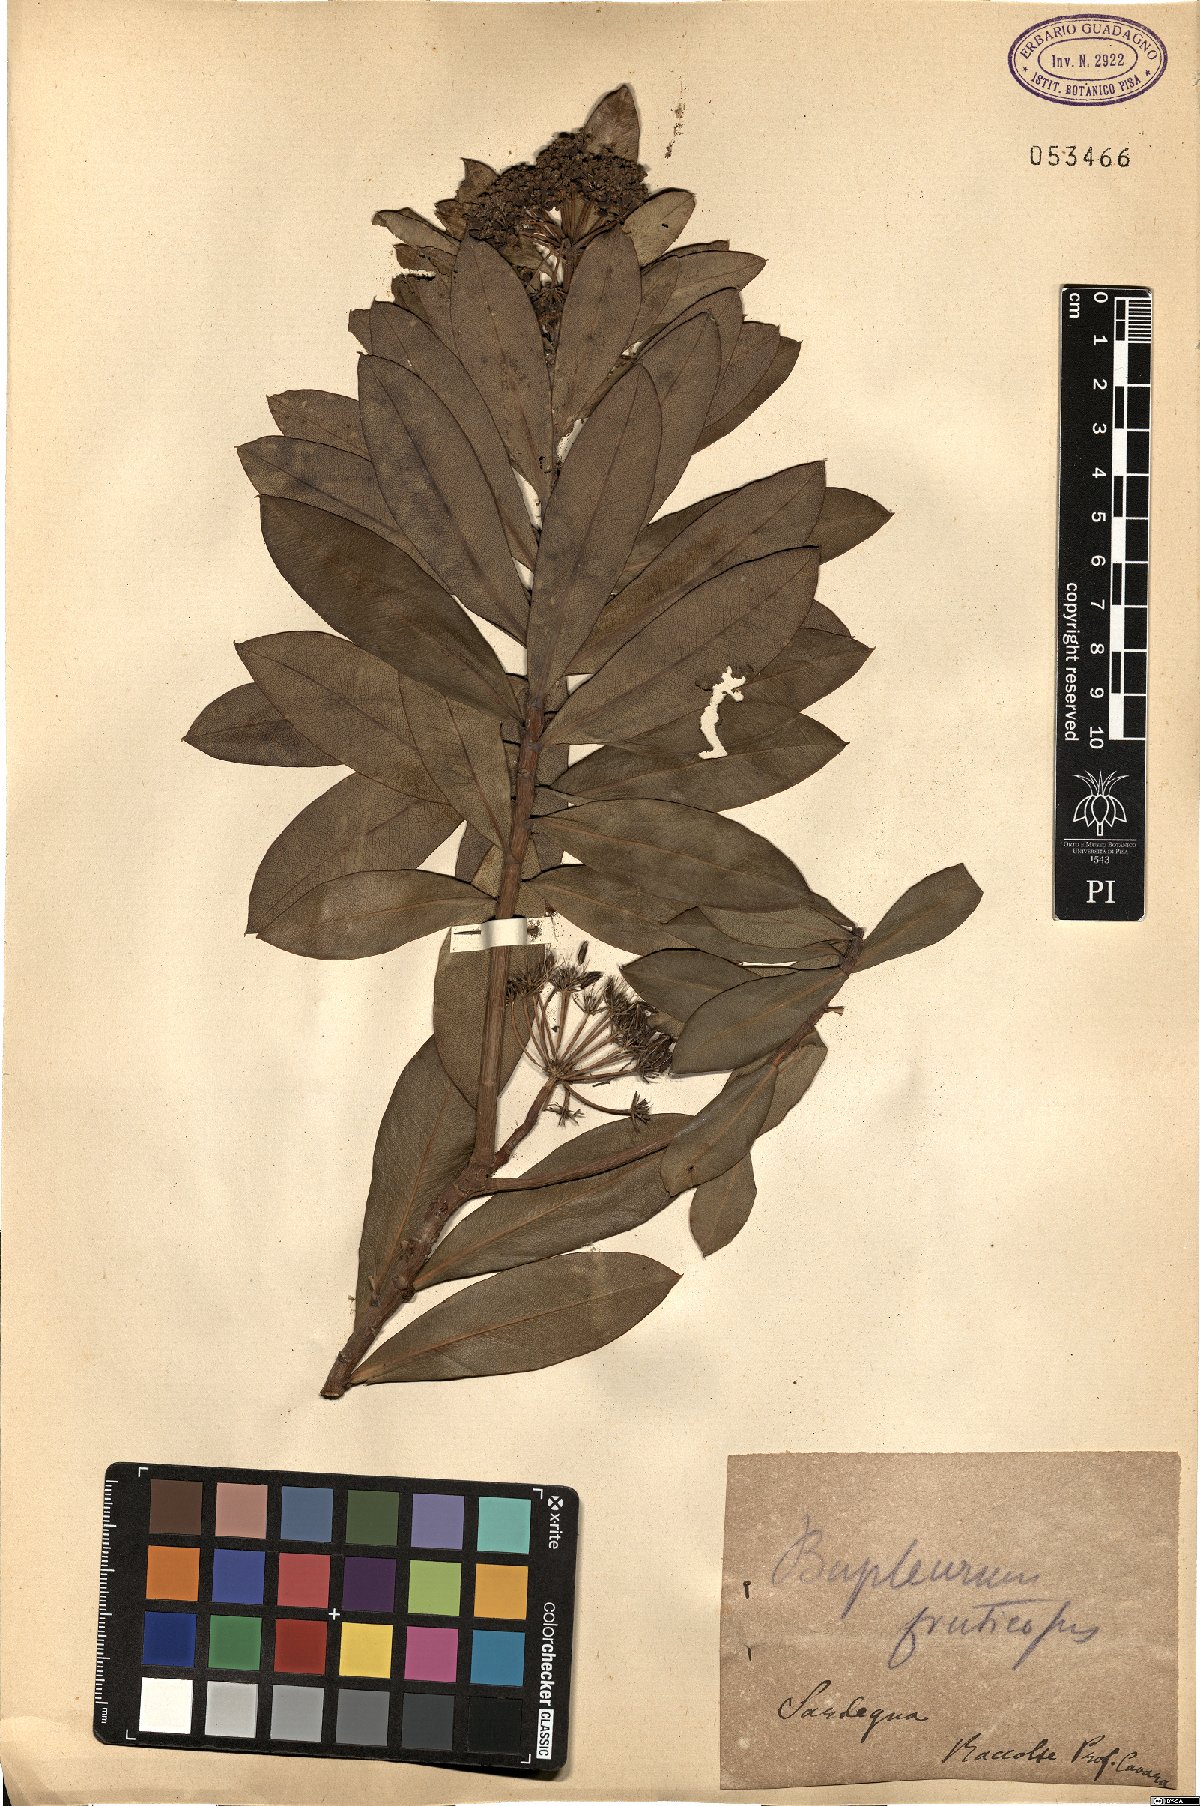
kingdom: Plantae
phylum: Tracheophyta
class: Magnoliopsida
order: Apiales
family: Apiaceae
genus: Bupleurum
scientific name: Bupleurum fruticosum
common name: Shrubby hare's-ear
